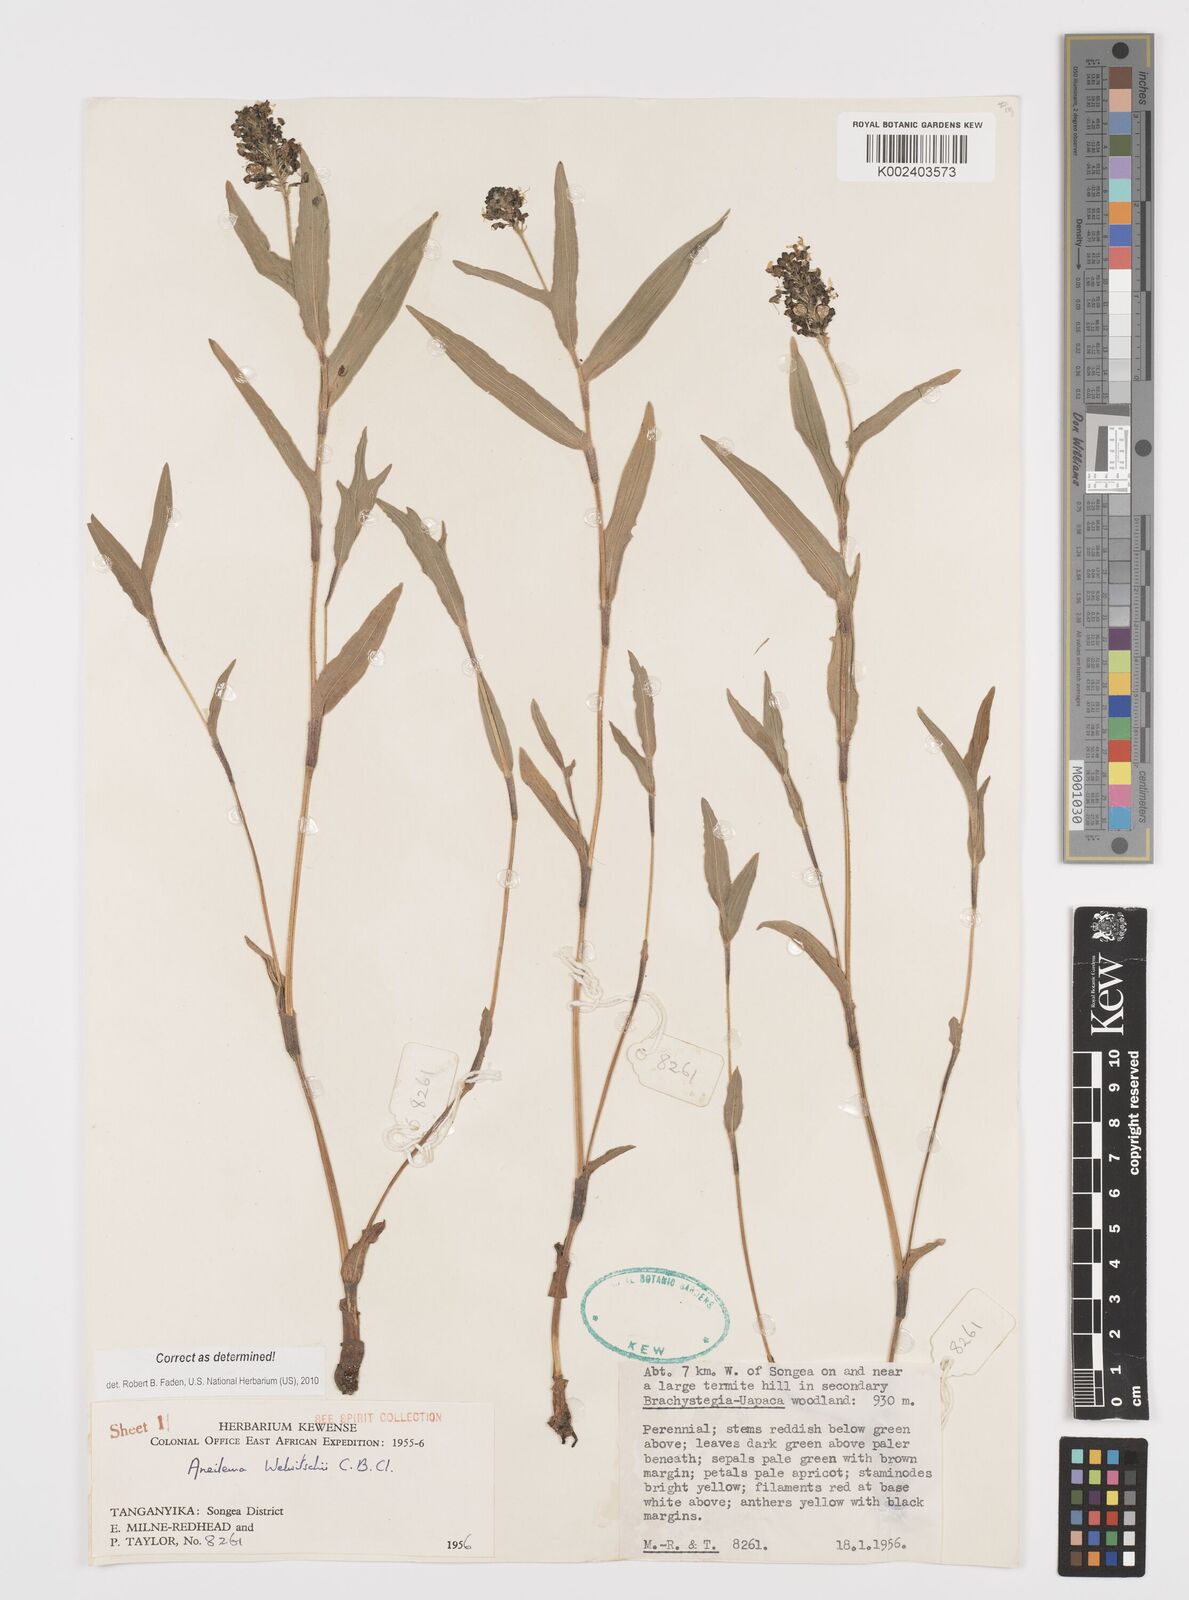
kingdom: Plantae
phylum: Tracheophyta
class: Liliopsida
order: Commelinales
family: Commelinaceae
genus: Aneilema
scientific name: Aneilema welwitschii
